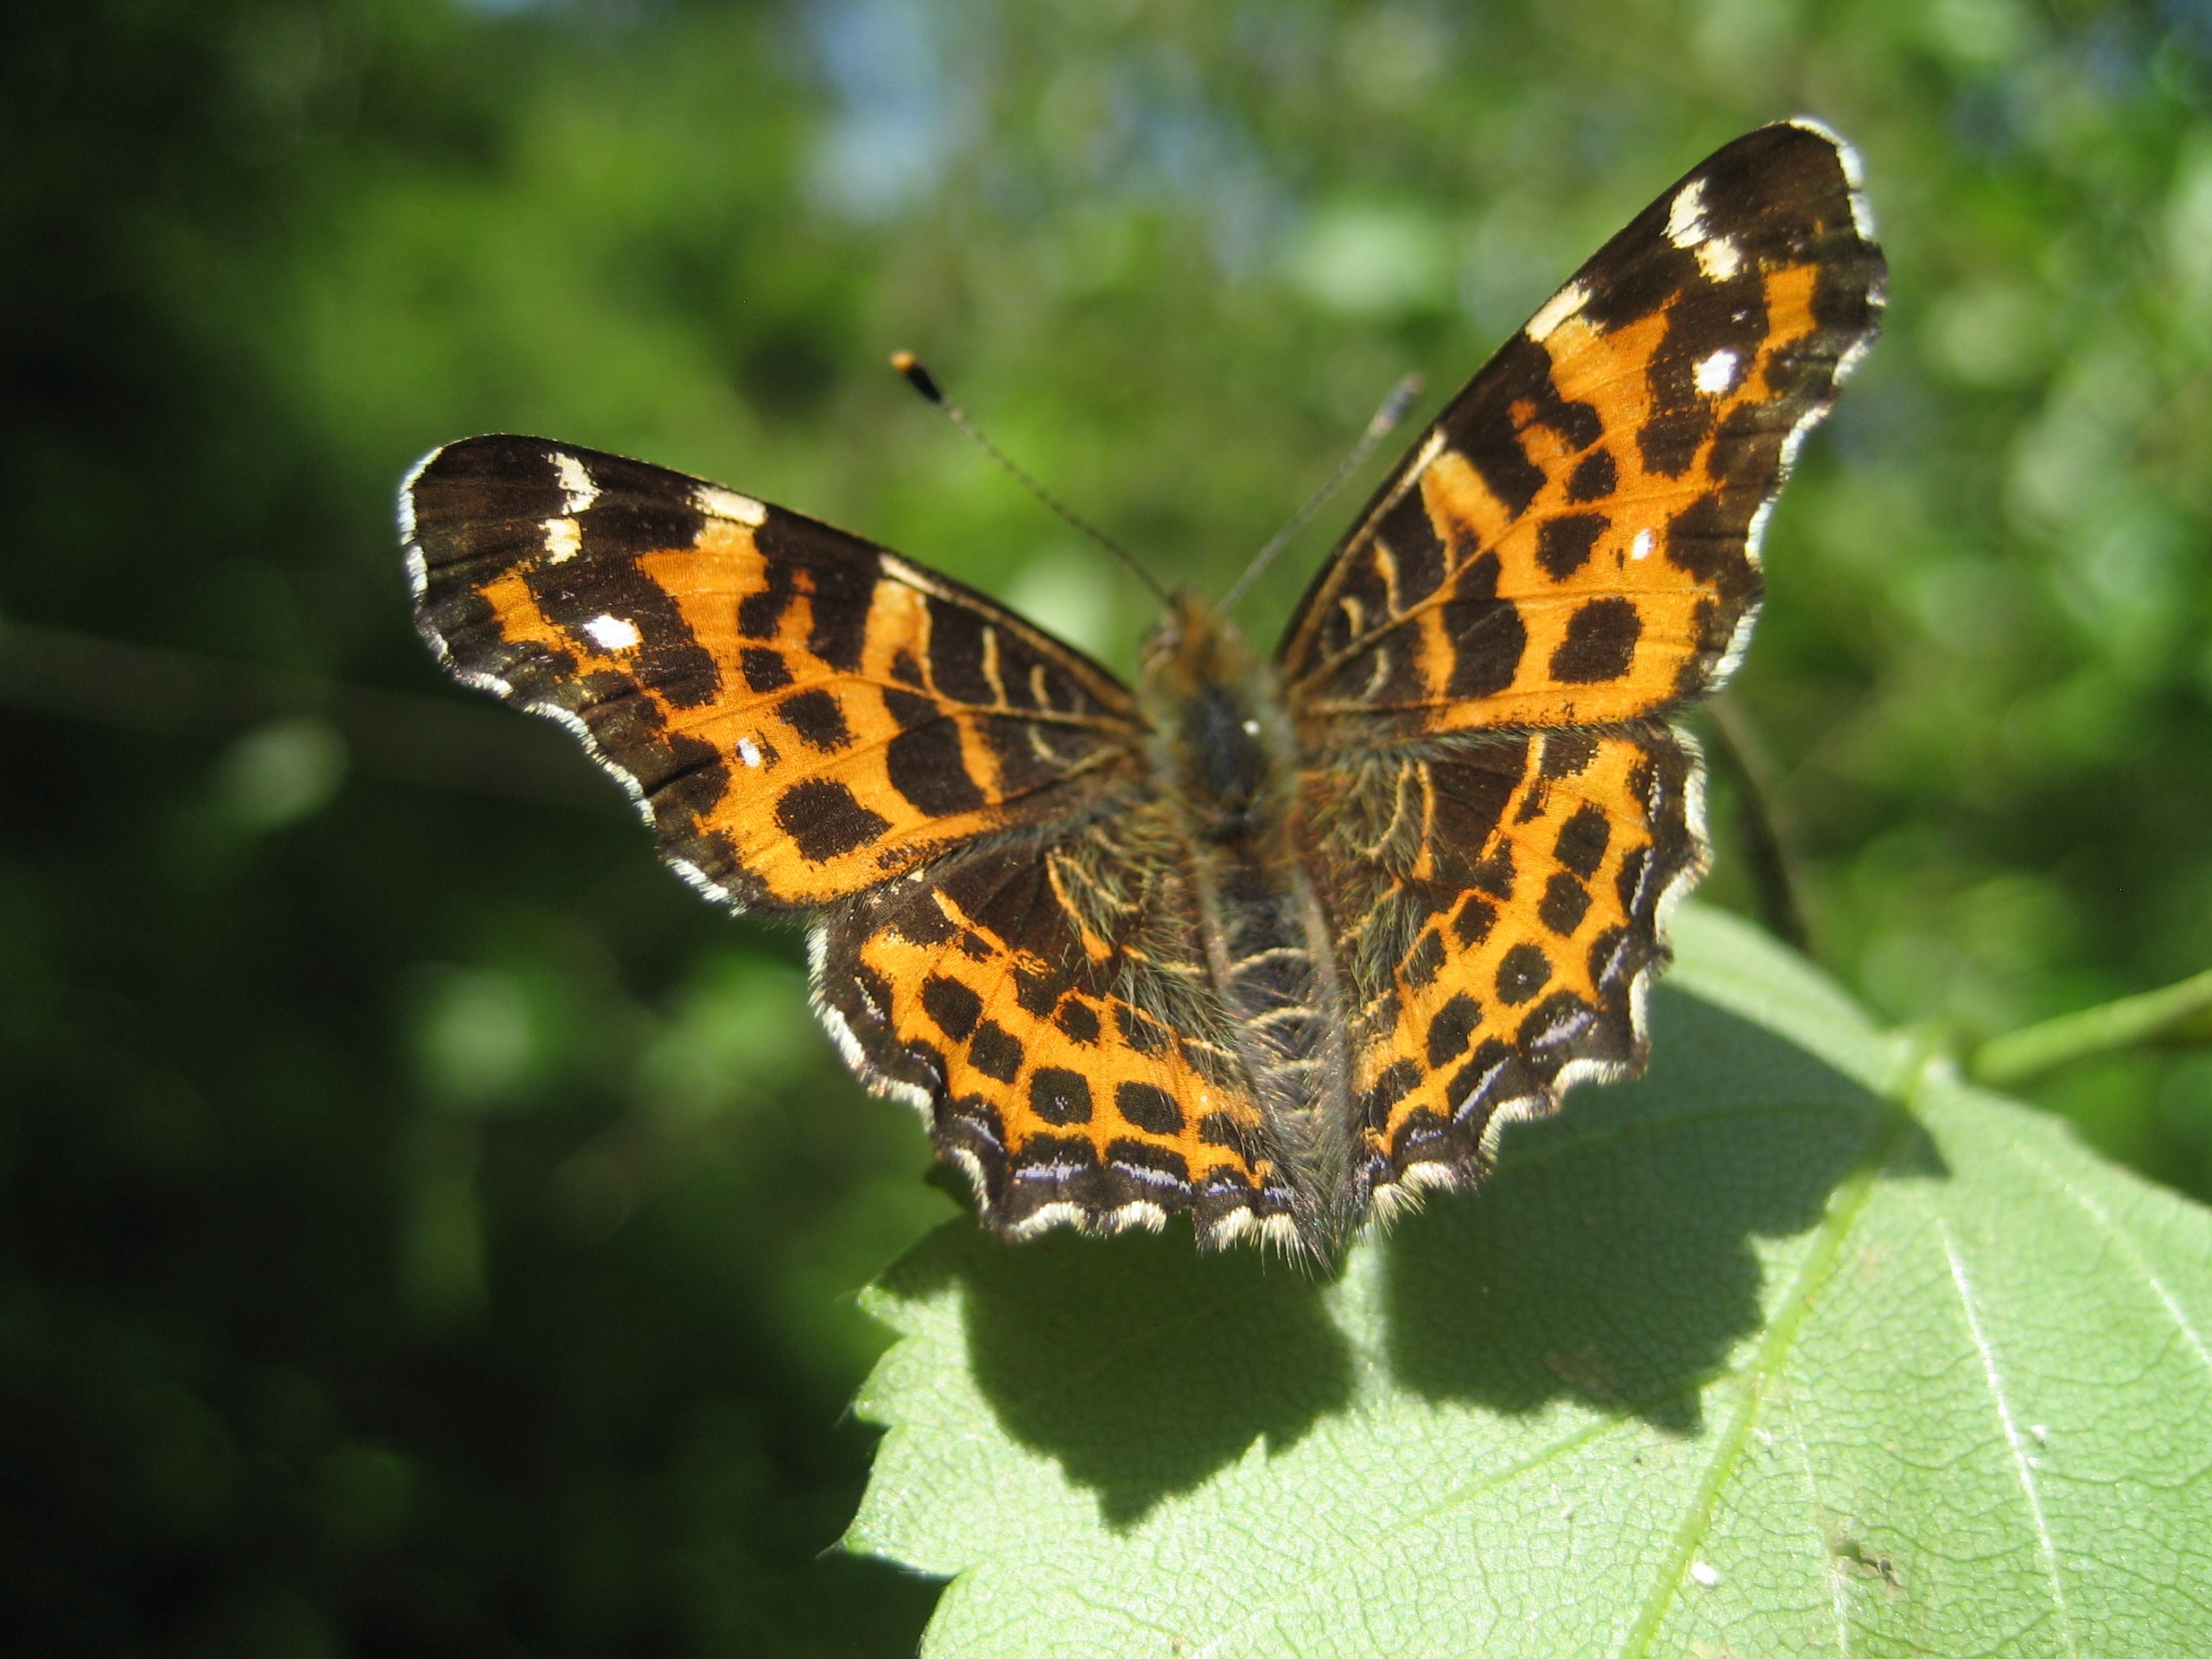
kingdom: Animalia
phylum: Arthropoda
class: Insecta
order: Lepidoptera
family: Nymphalidae
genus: Araschnia
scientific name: Araschnia levana
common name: Nældesommerfugl
